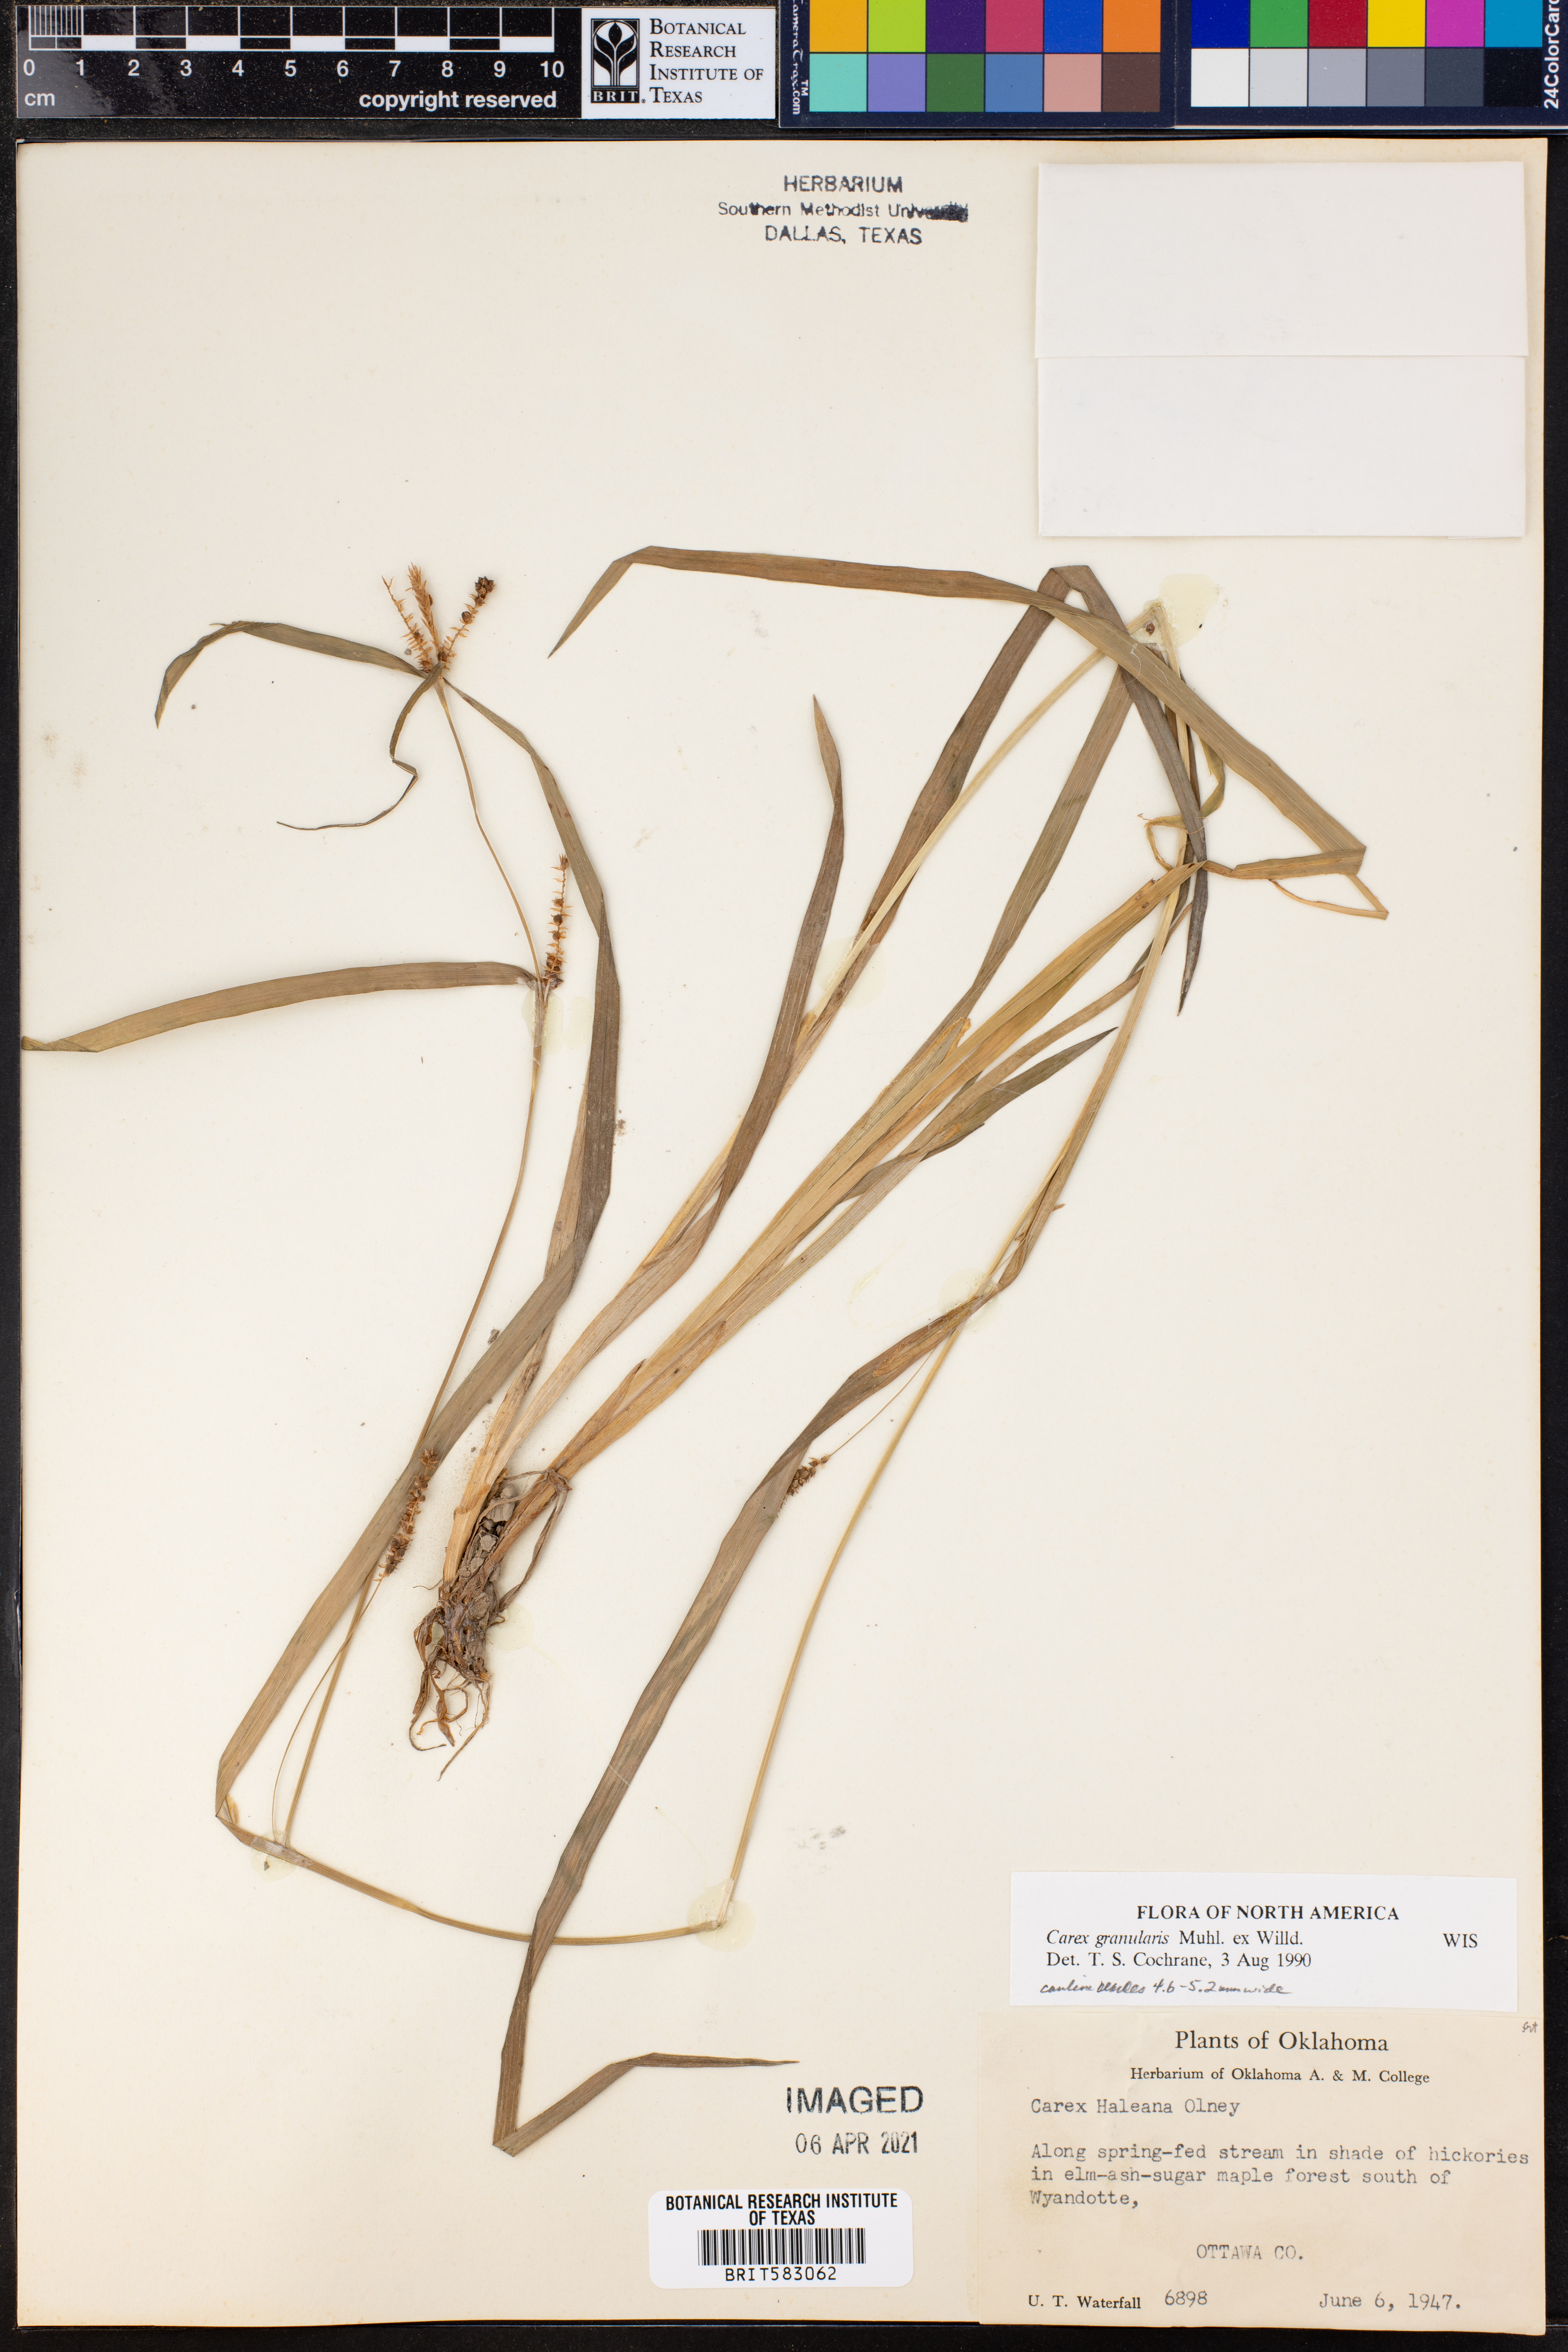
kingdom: Plantae
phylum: Tracheophyta
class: Liliopsida
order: Poales
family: Cyperaceae
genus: Carex
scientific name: Carex granularis
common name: Granular sedge
